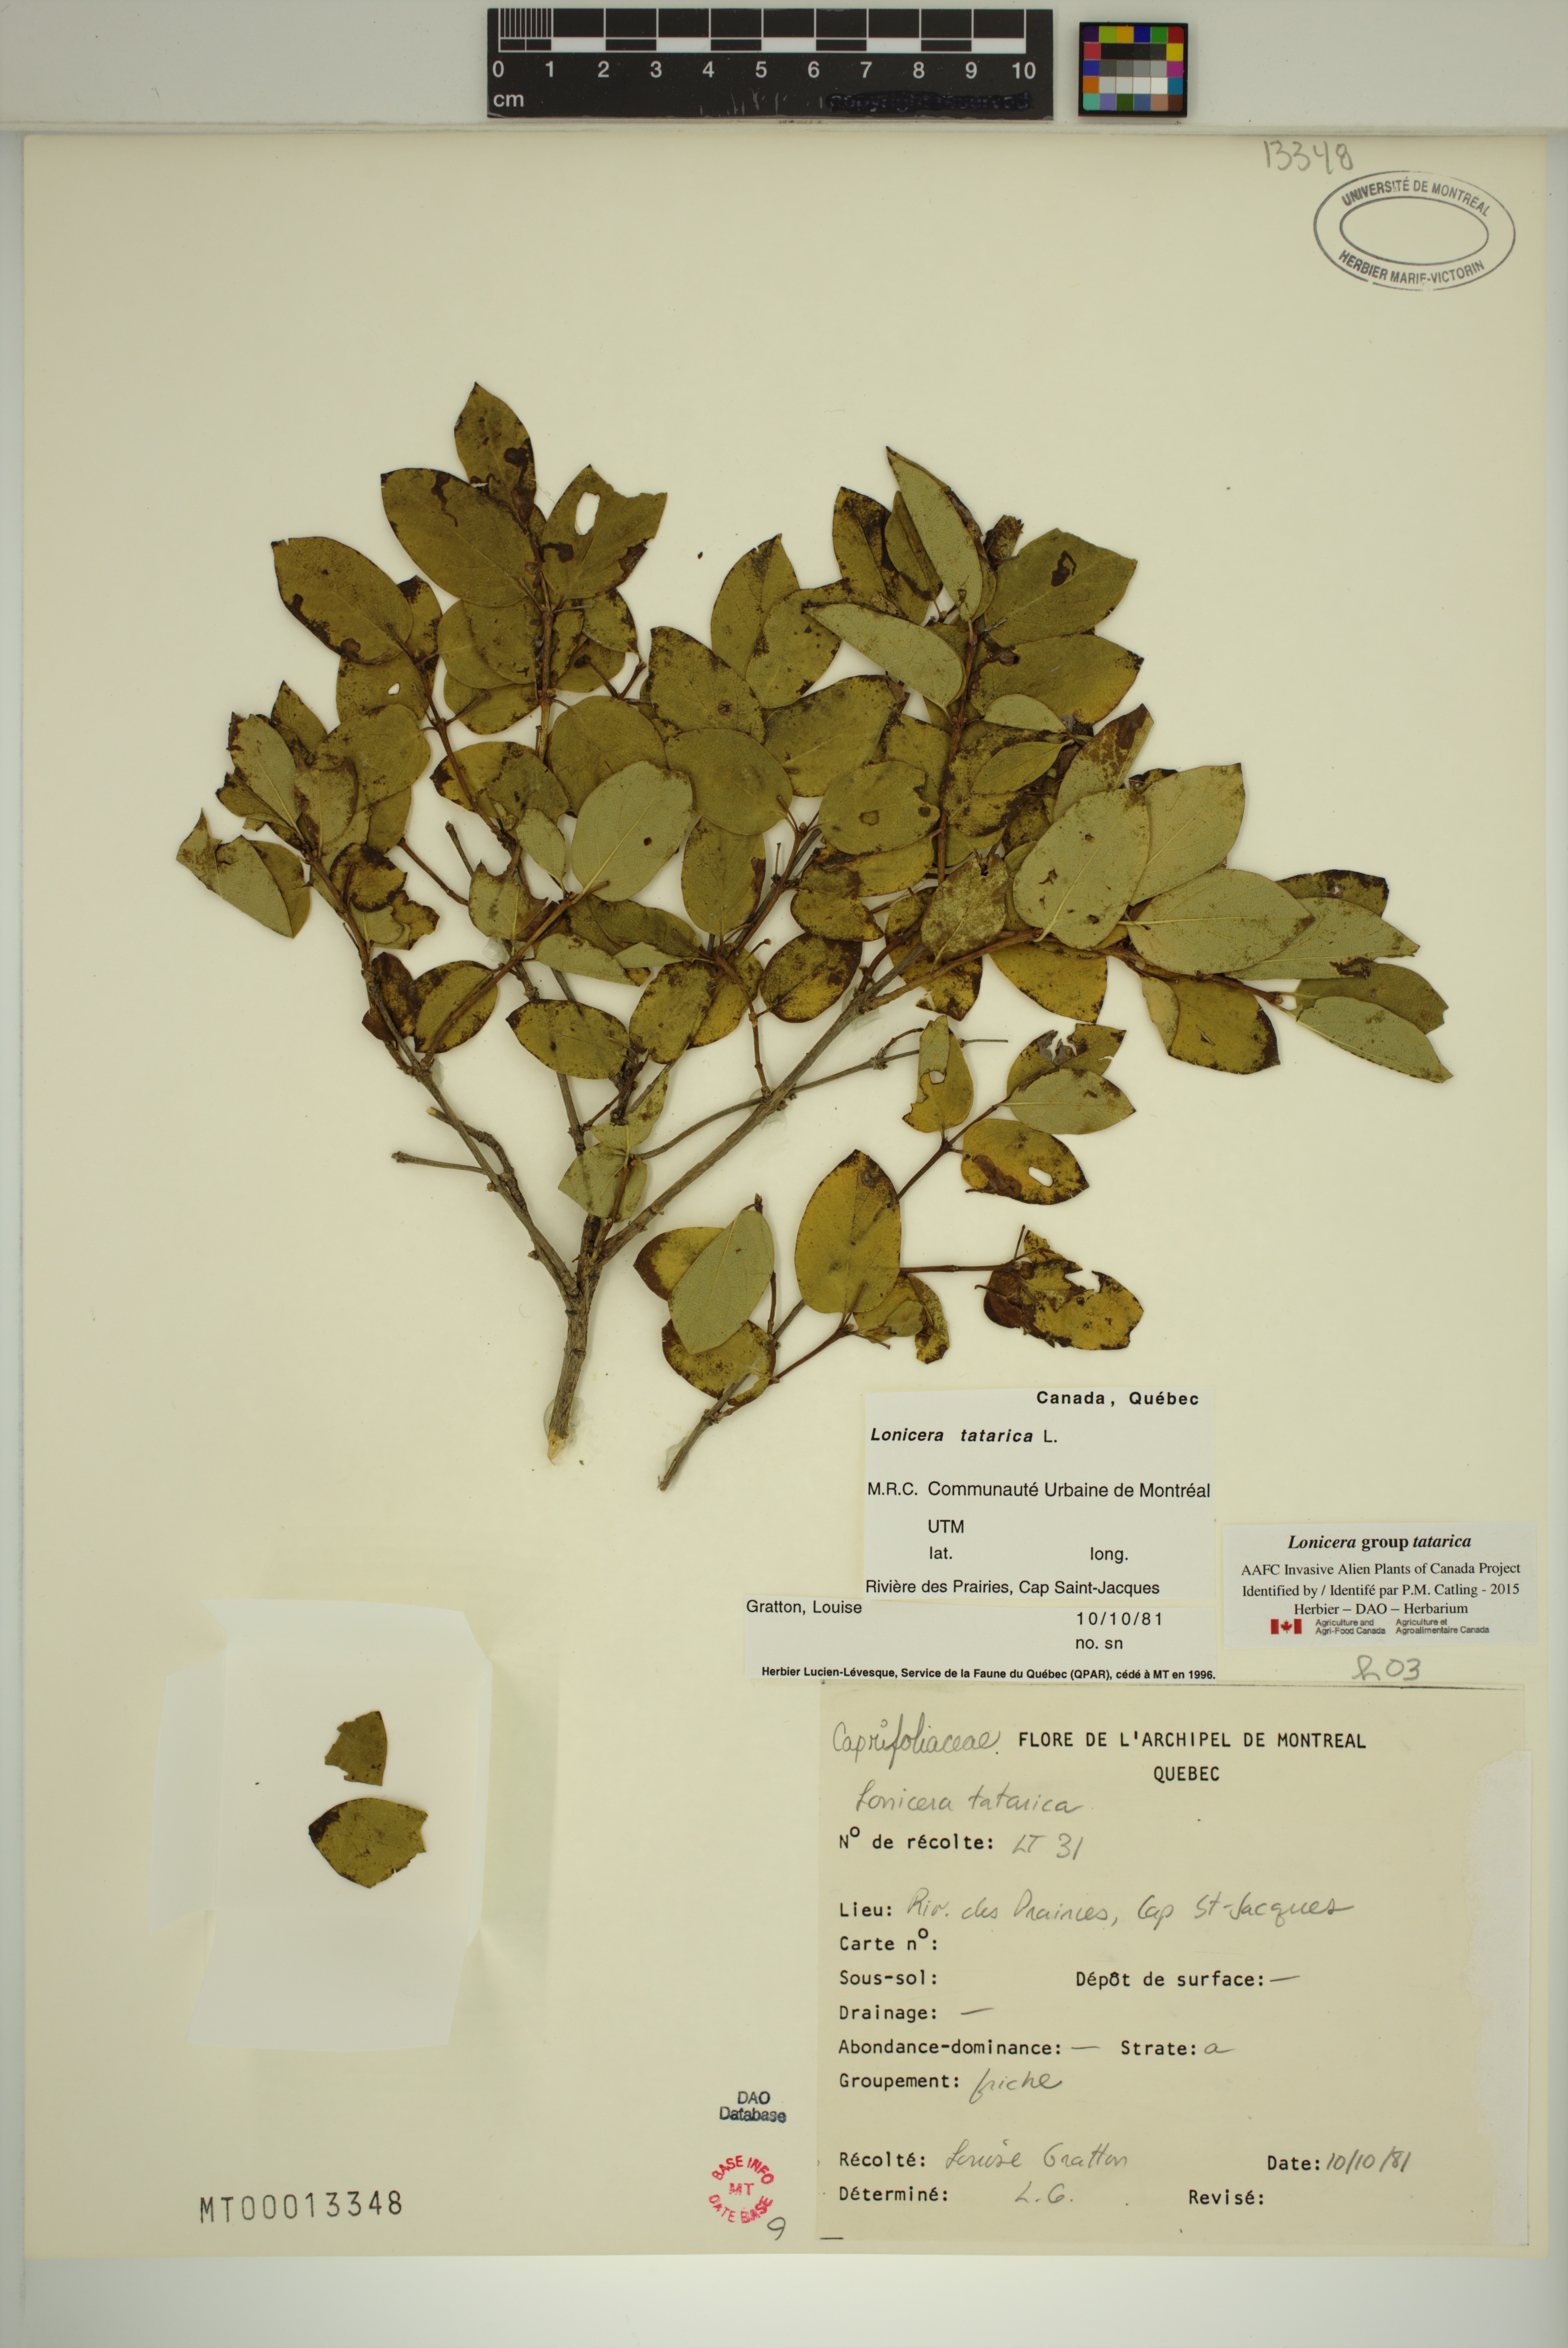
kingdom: Plantae
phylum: Tracheophyta
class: Magnoliopsida
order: Dipsacales
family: Caprifoliaceae
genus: Lonicera
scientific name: Lonicera tatarica
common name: Tatarian honeysuckle
